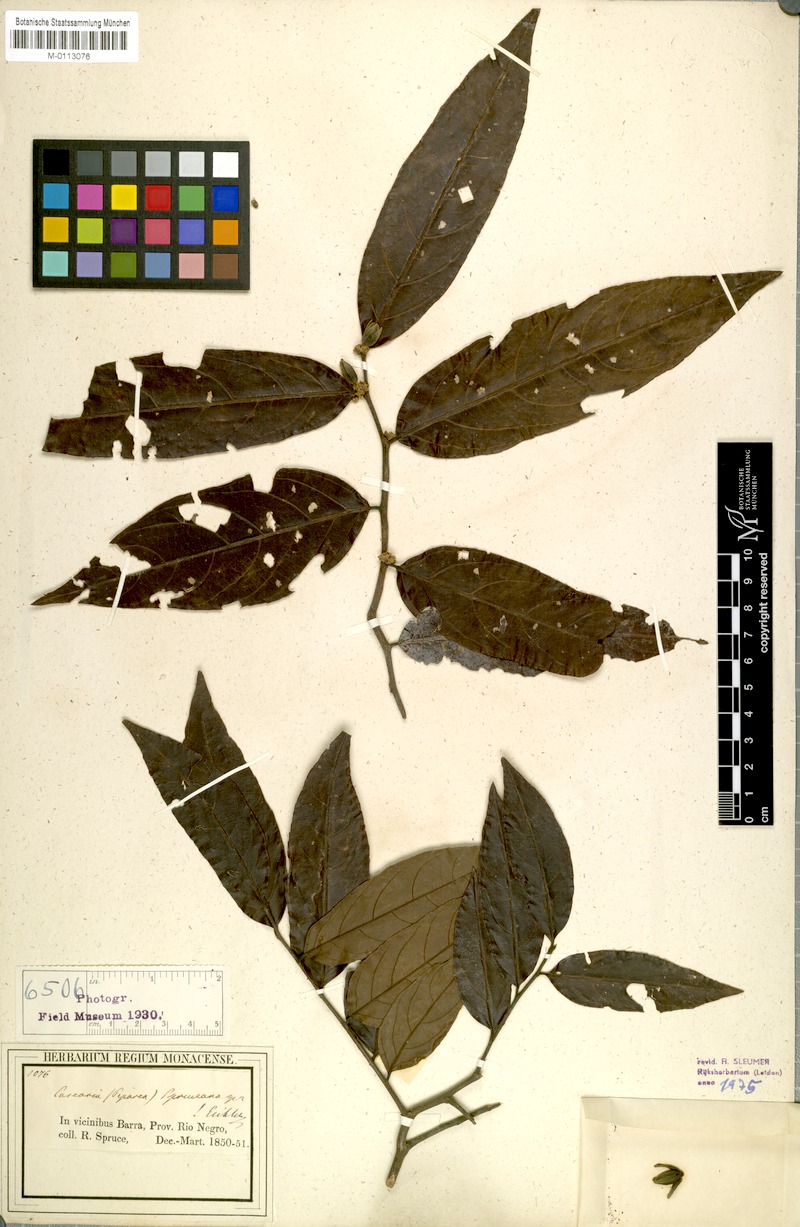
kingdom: Plantae
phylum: Tracheophyta
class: Magnoliopsida
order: Malpighiales
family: Salicaceae
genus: Piparea
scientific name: Piparea spruceana
